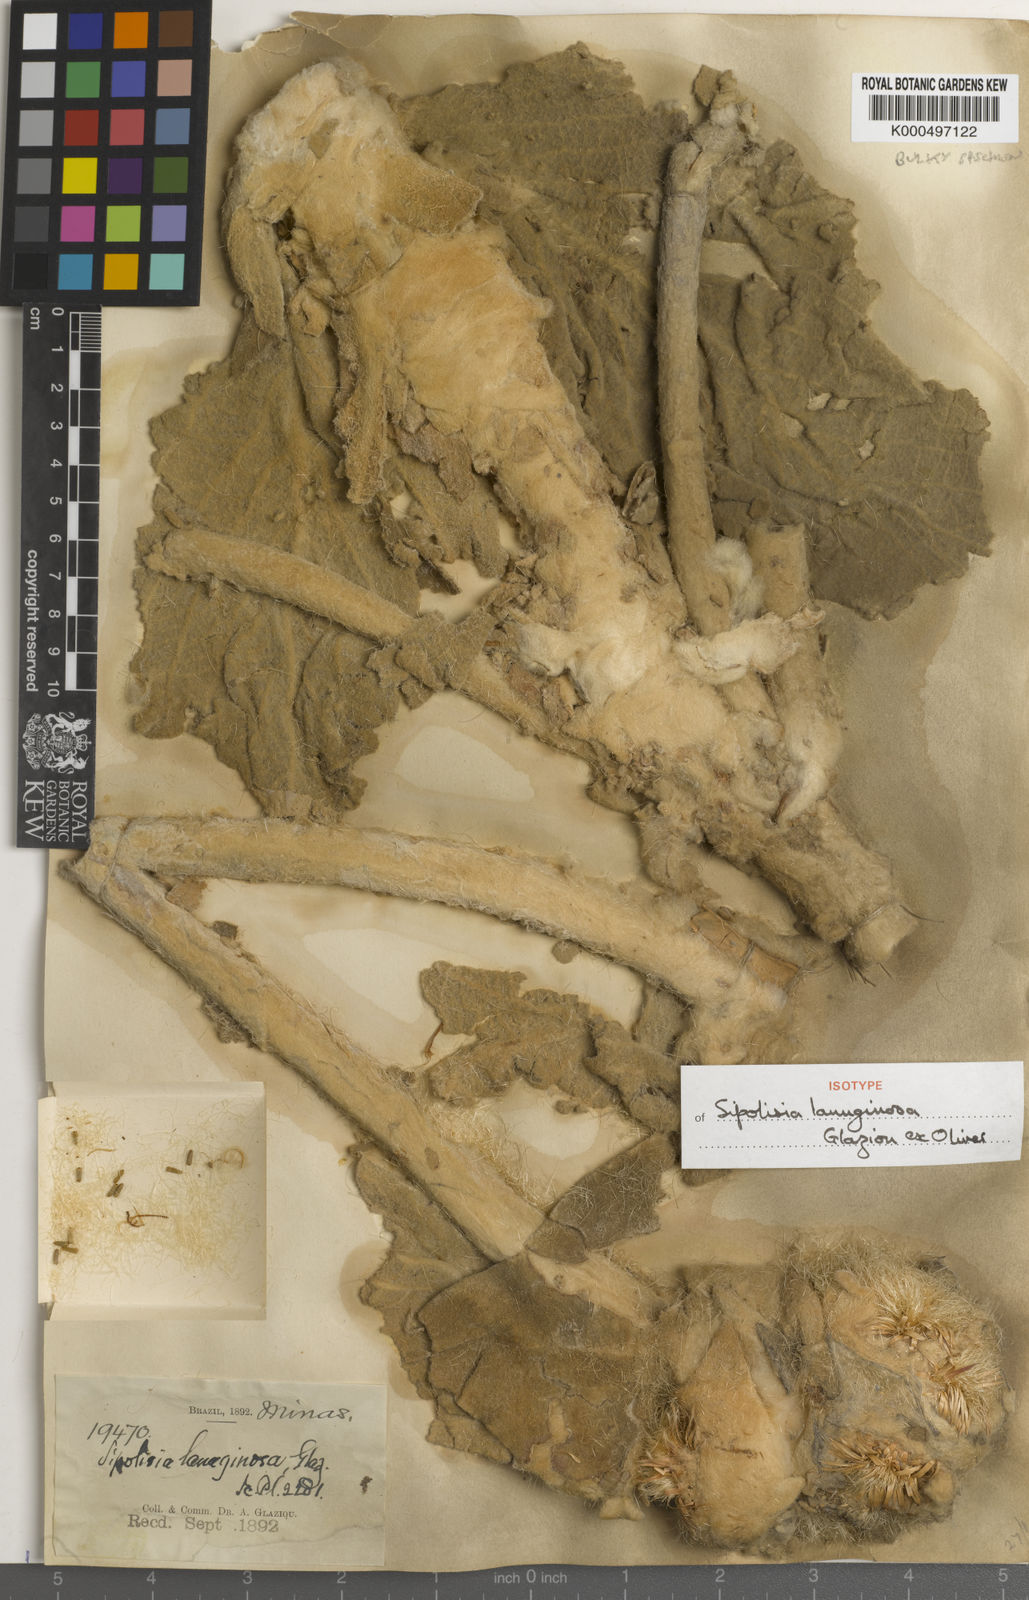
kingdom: Plantae
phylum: Tracheophyta
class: Magnoliopsida
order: Asterales
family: Asteraceae
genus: Heterocoma
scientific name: Heterocoma lanuginosa
